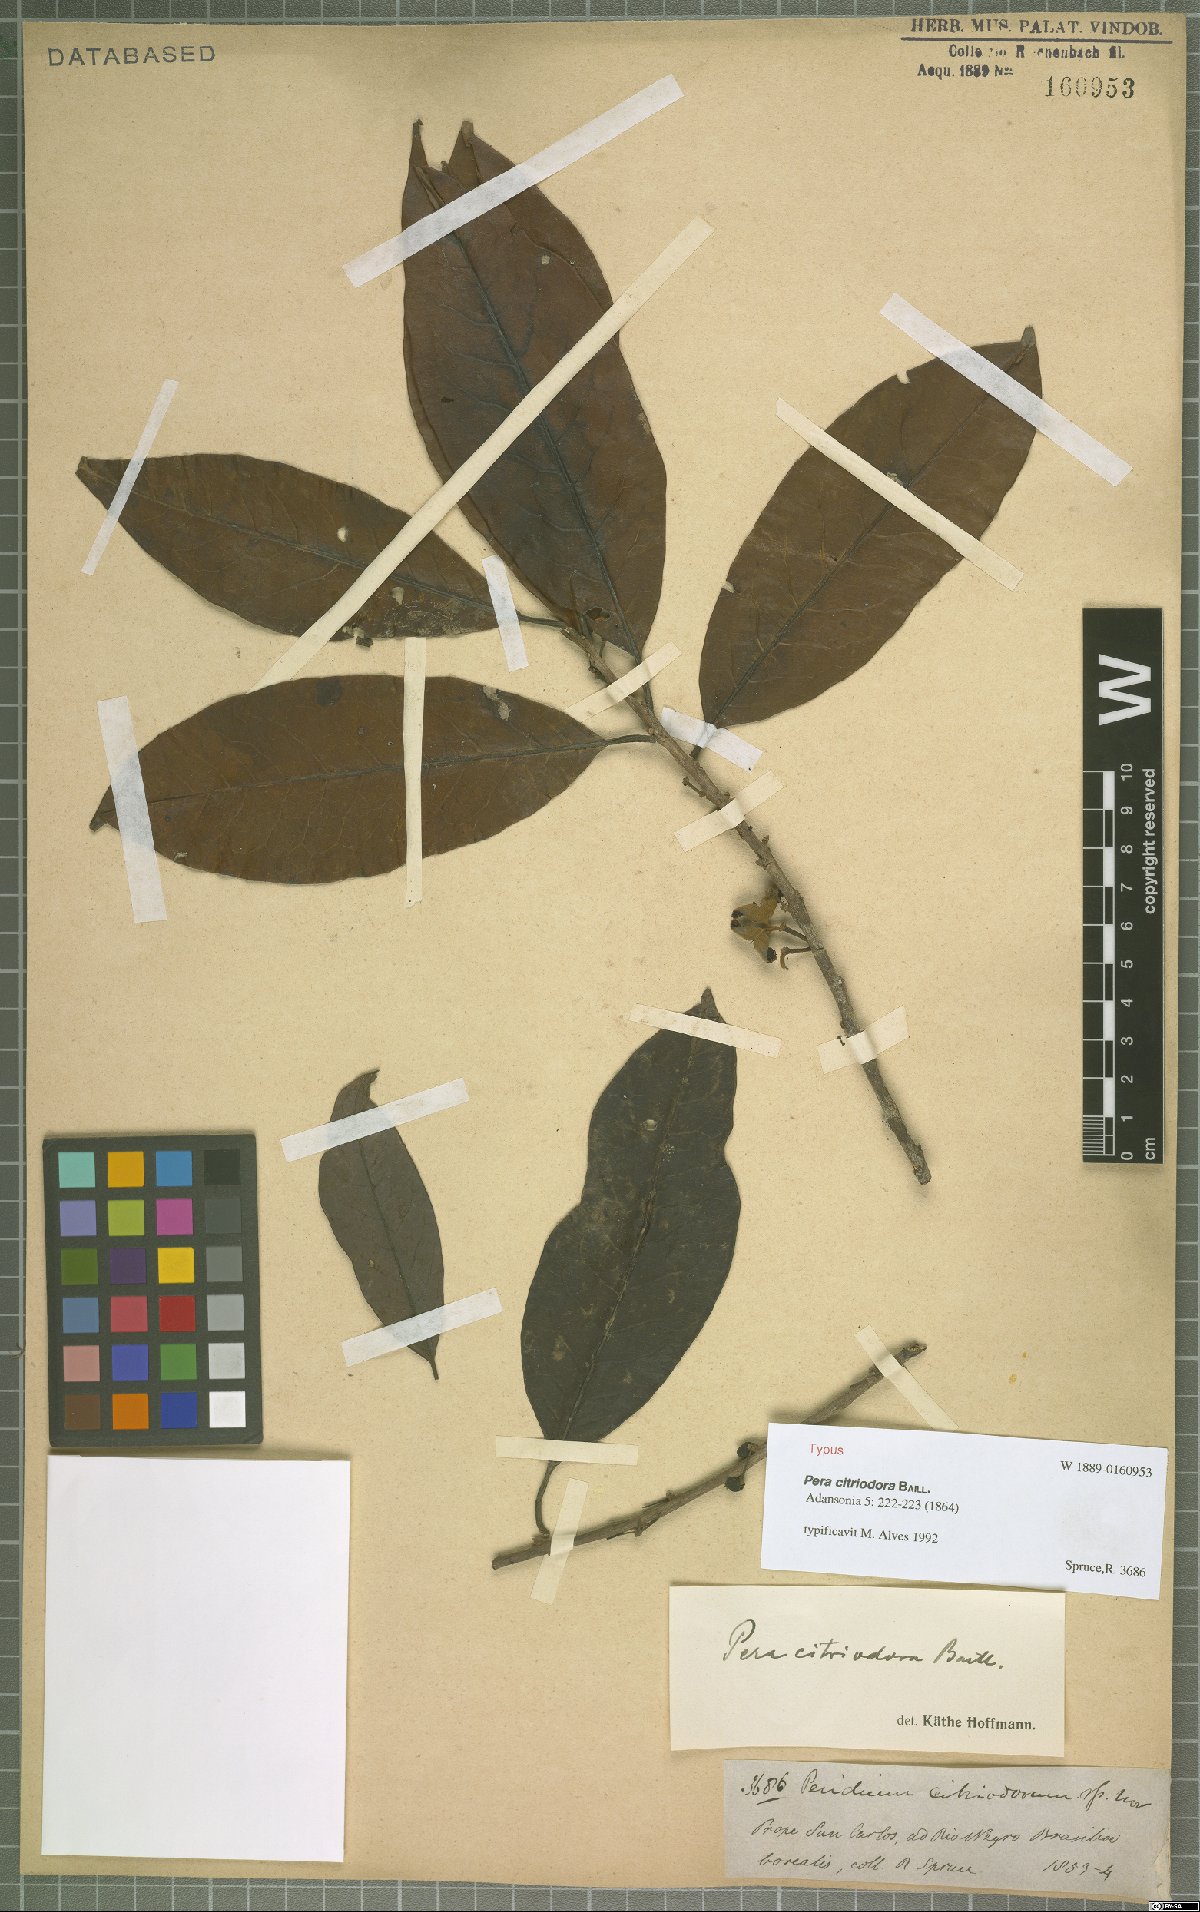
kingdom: Plantae
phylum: Tracheophyta
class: Magnoliopsida
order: Malpighiales
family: Peraceae
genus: Pera
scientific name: Pera citriodora
